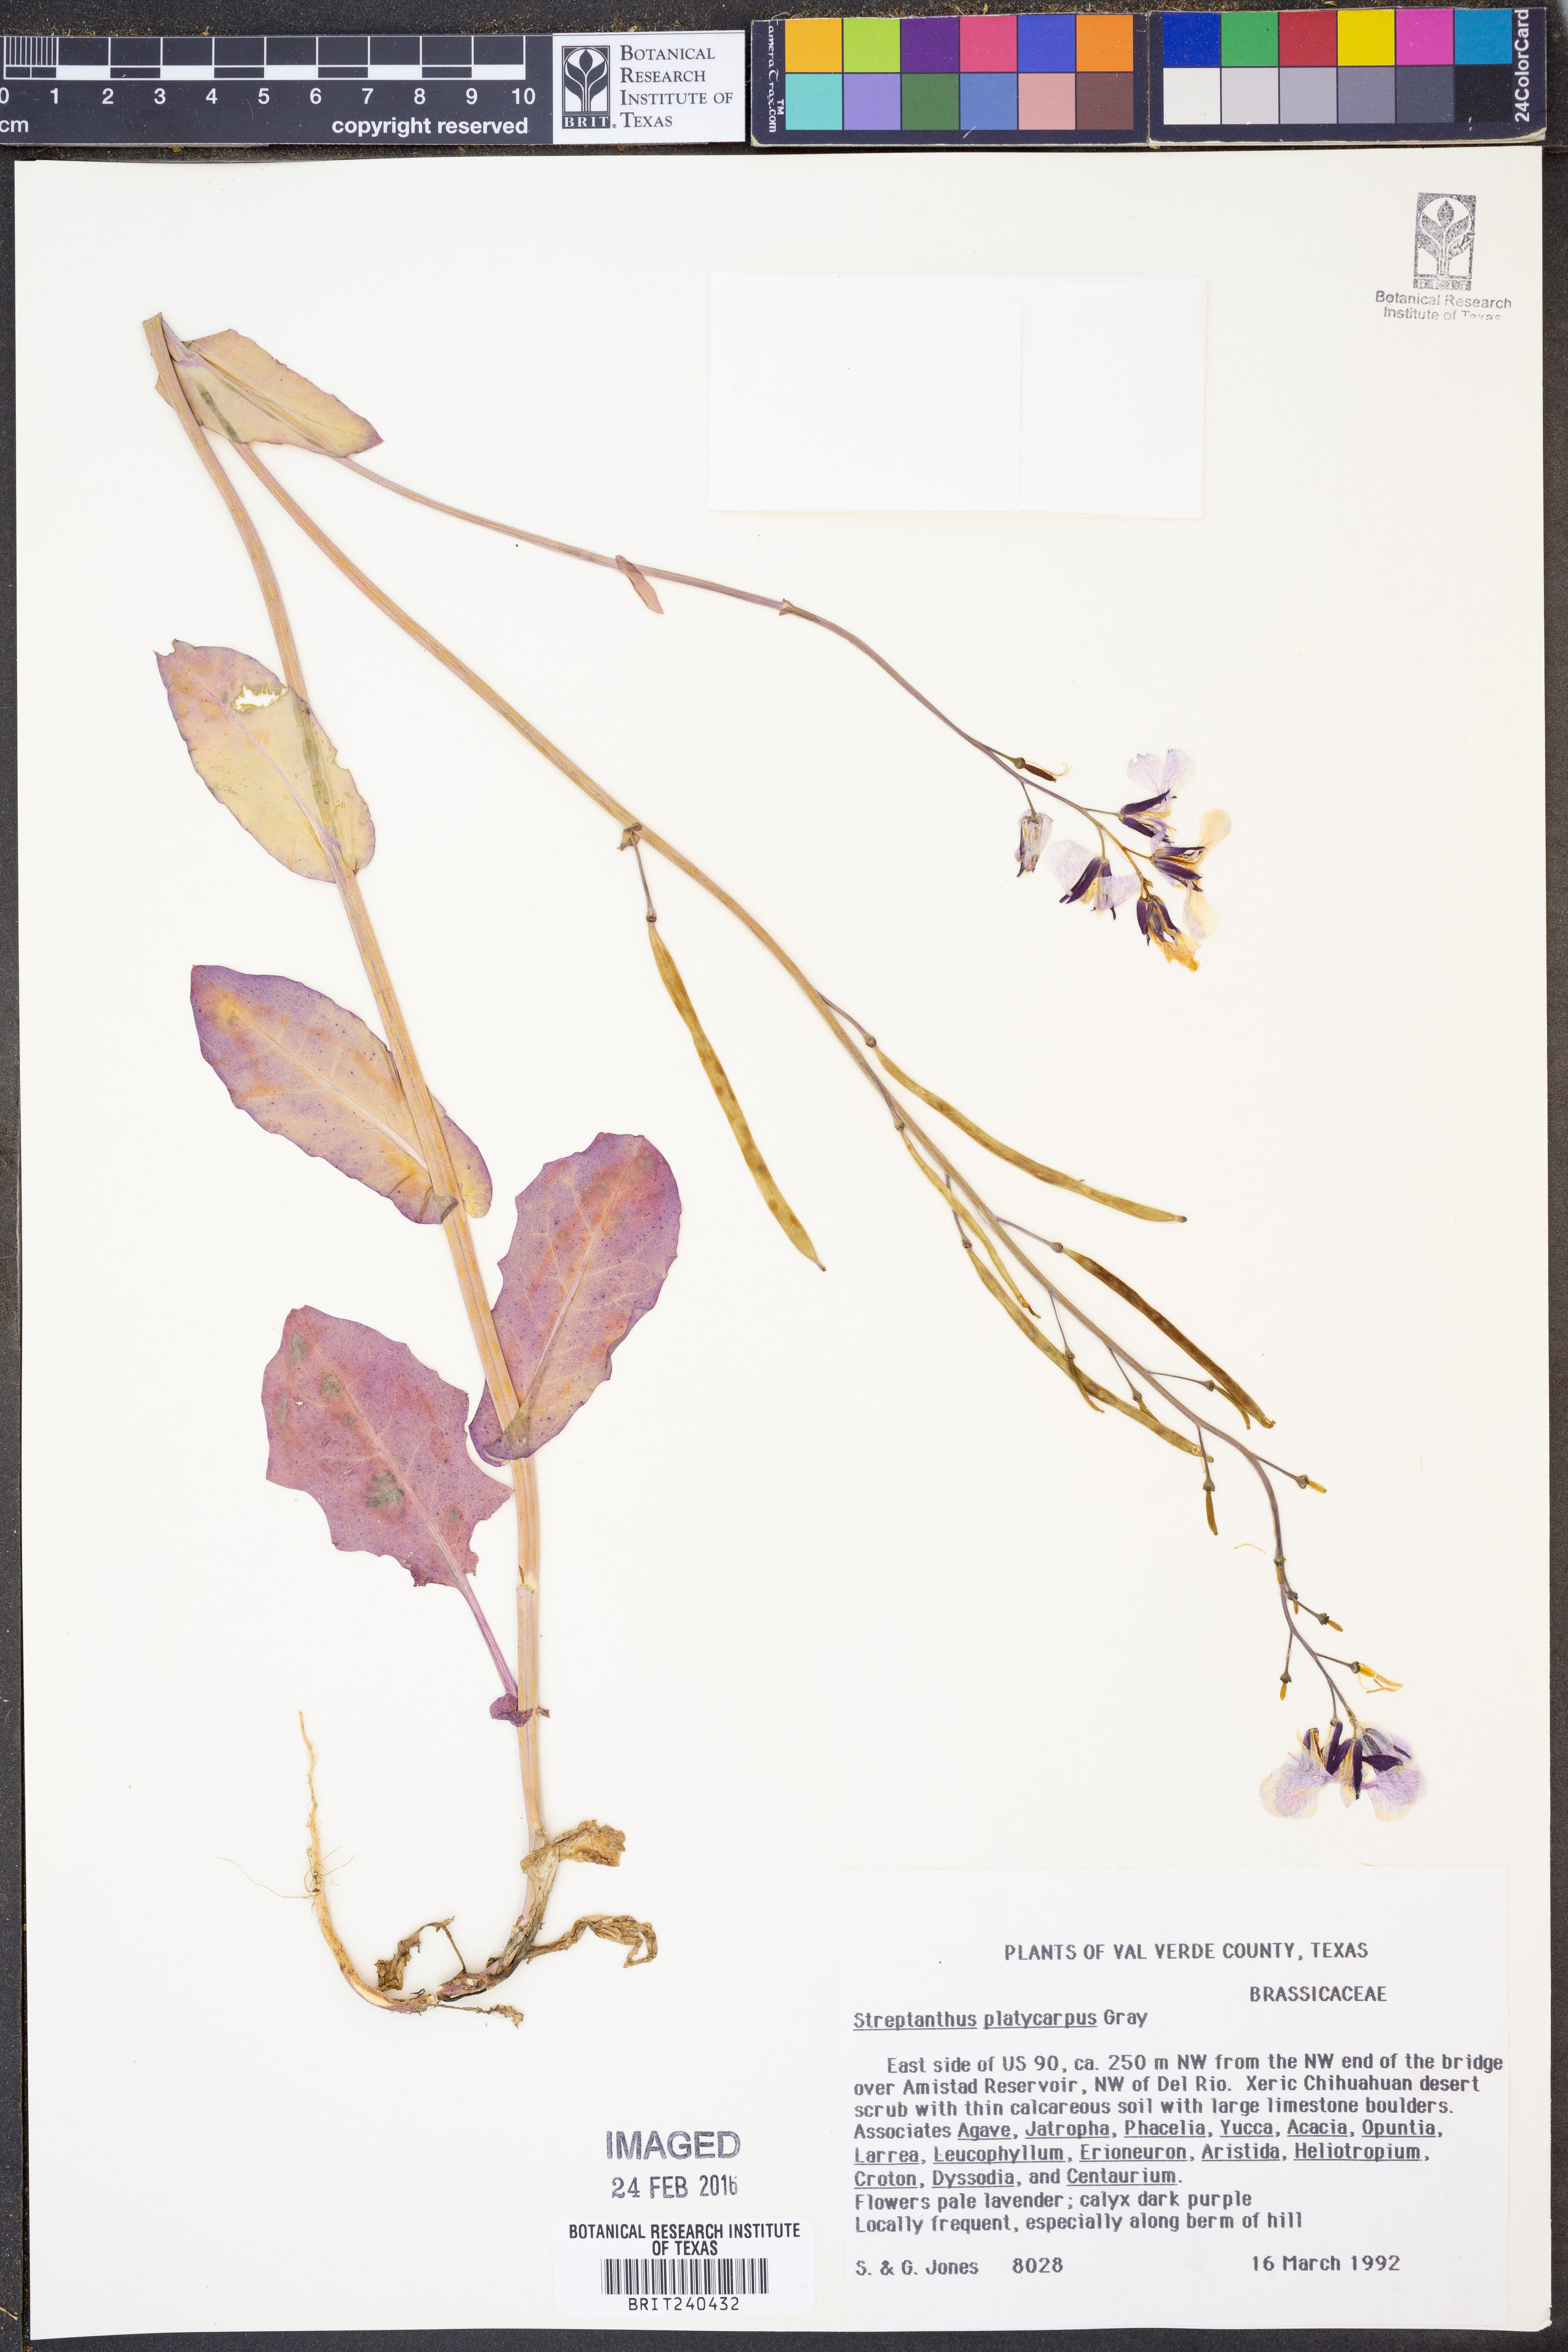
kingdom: Plantae
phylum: Tracheophyta
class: Magnoliopsida
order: Brassicales
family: Brassicaceae
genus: Streptanthus
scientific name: Streptanthus platycarpus
